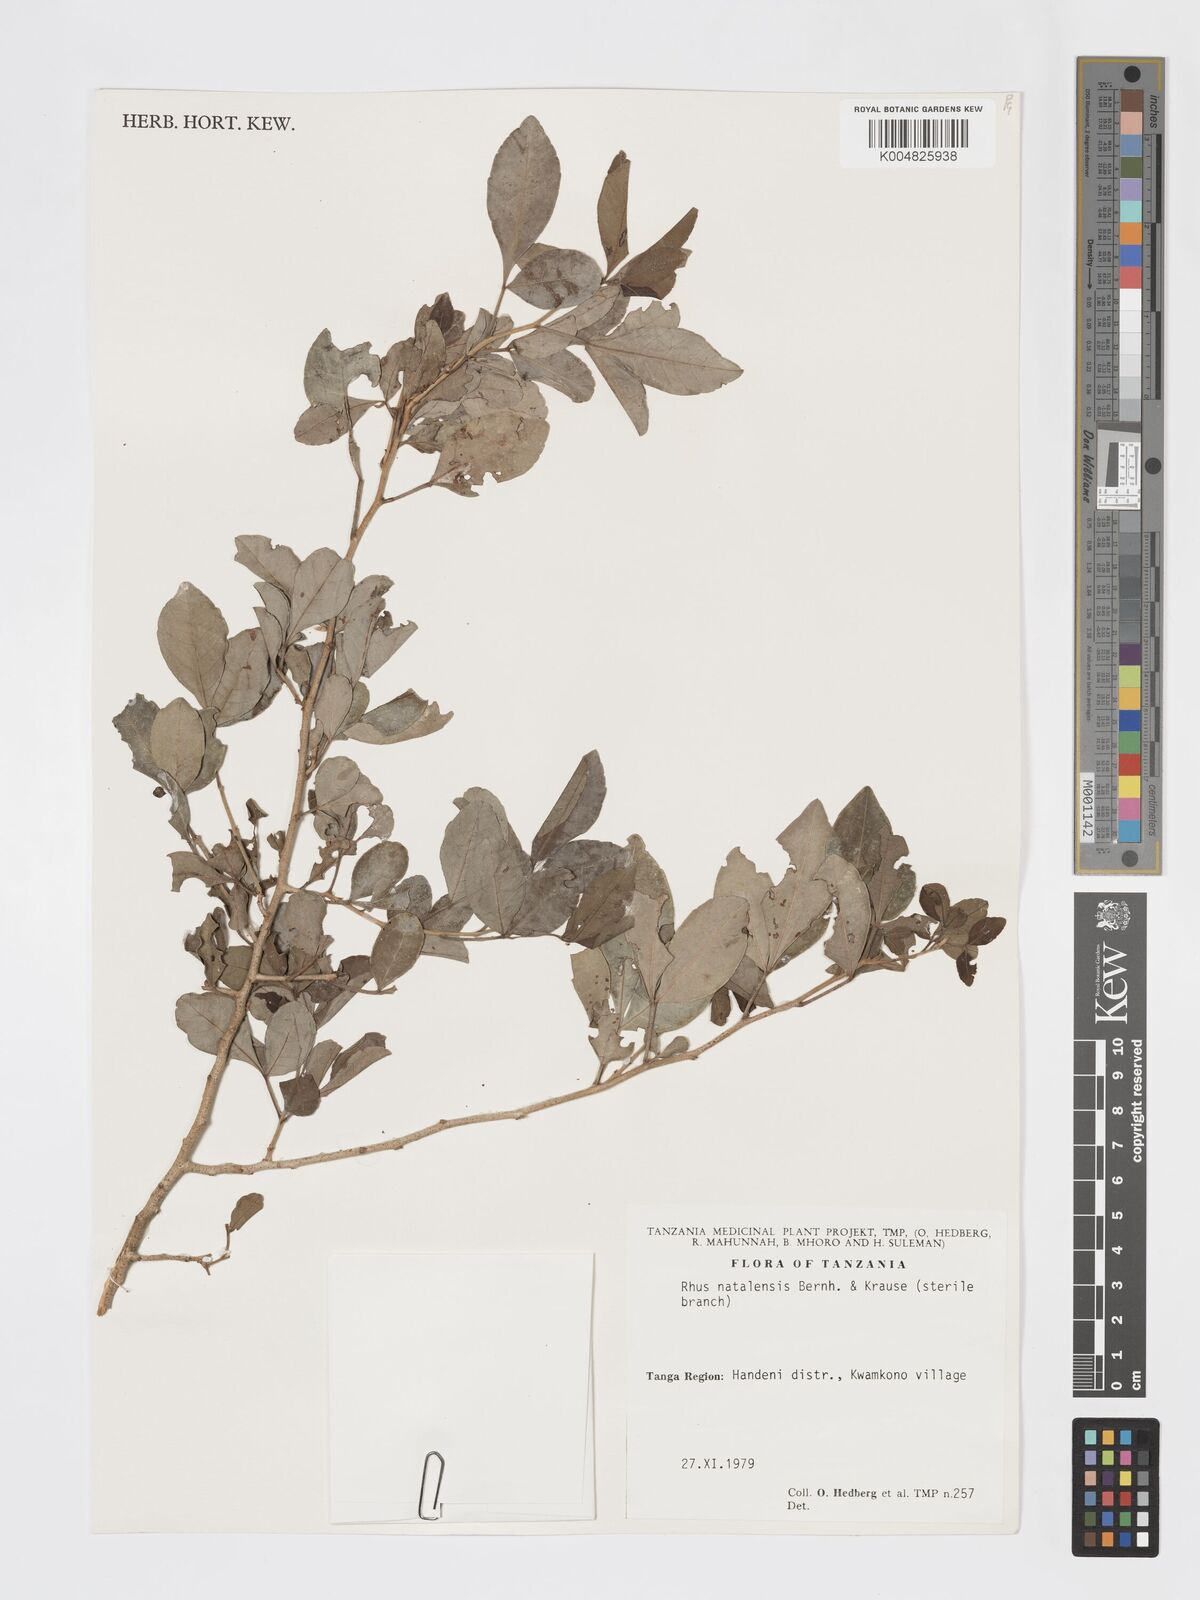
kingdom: Plantae
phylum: Tracheophyta
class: Magnoliopsida
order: Sapindales
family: Anacardiaceae
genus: Searsia
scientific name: Searsia natalensis
